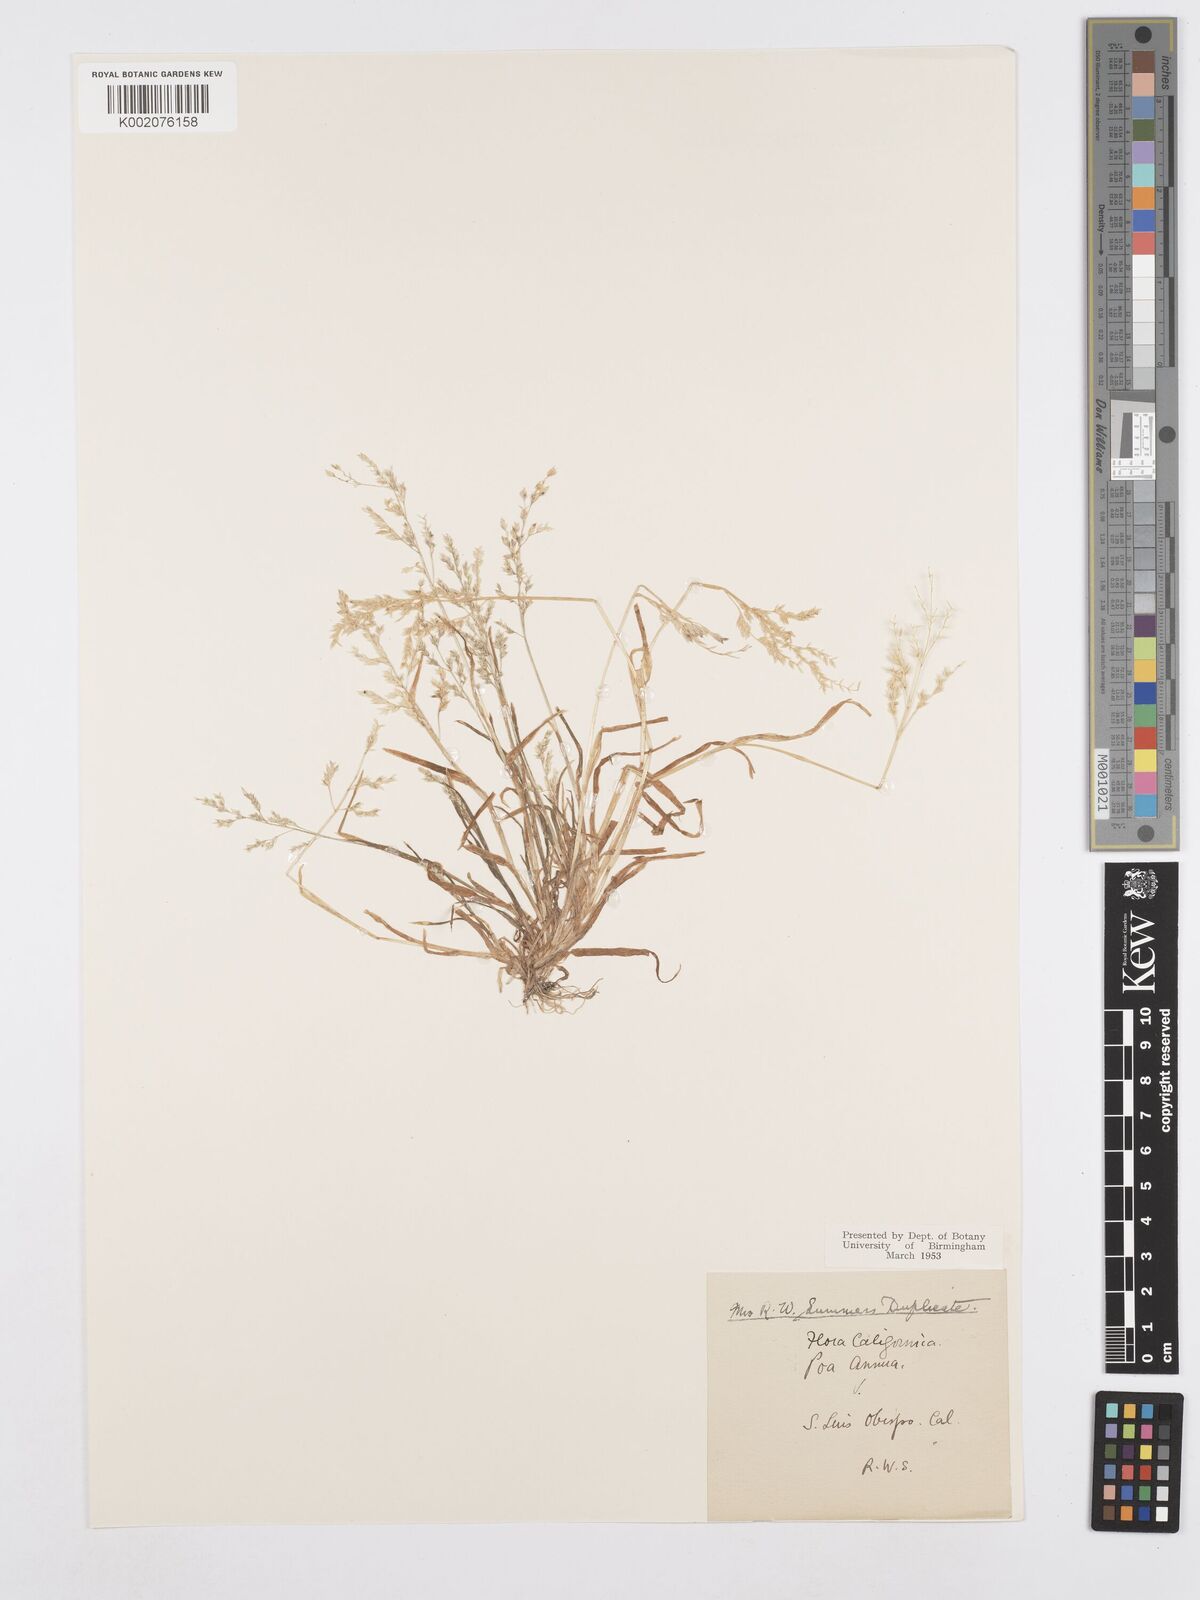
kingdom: Plantae
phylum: Tracheophyta
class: Liliopsida
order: Poales
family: Poaceae
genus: Poa
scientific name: Poa annua
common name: Annual bluegrass
